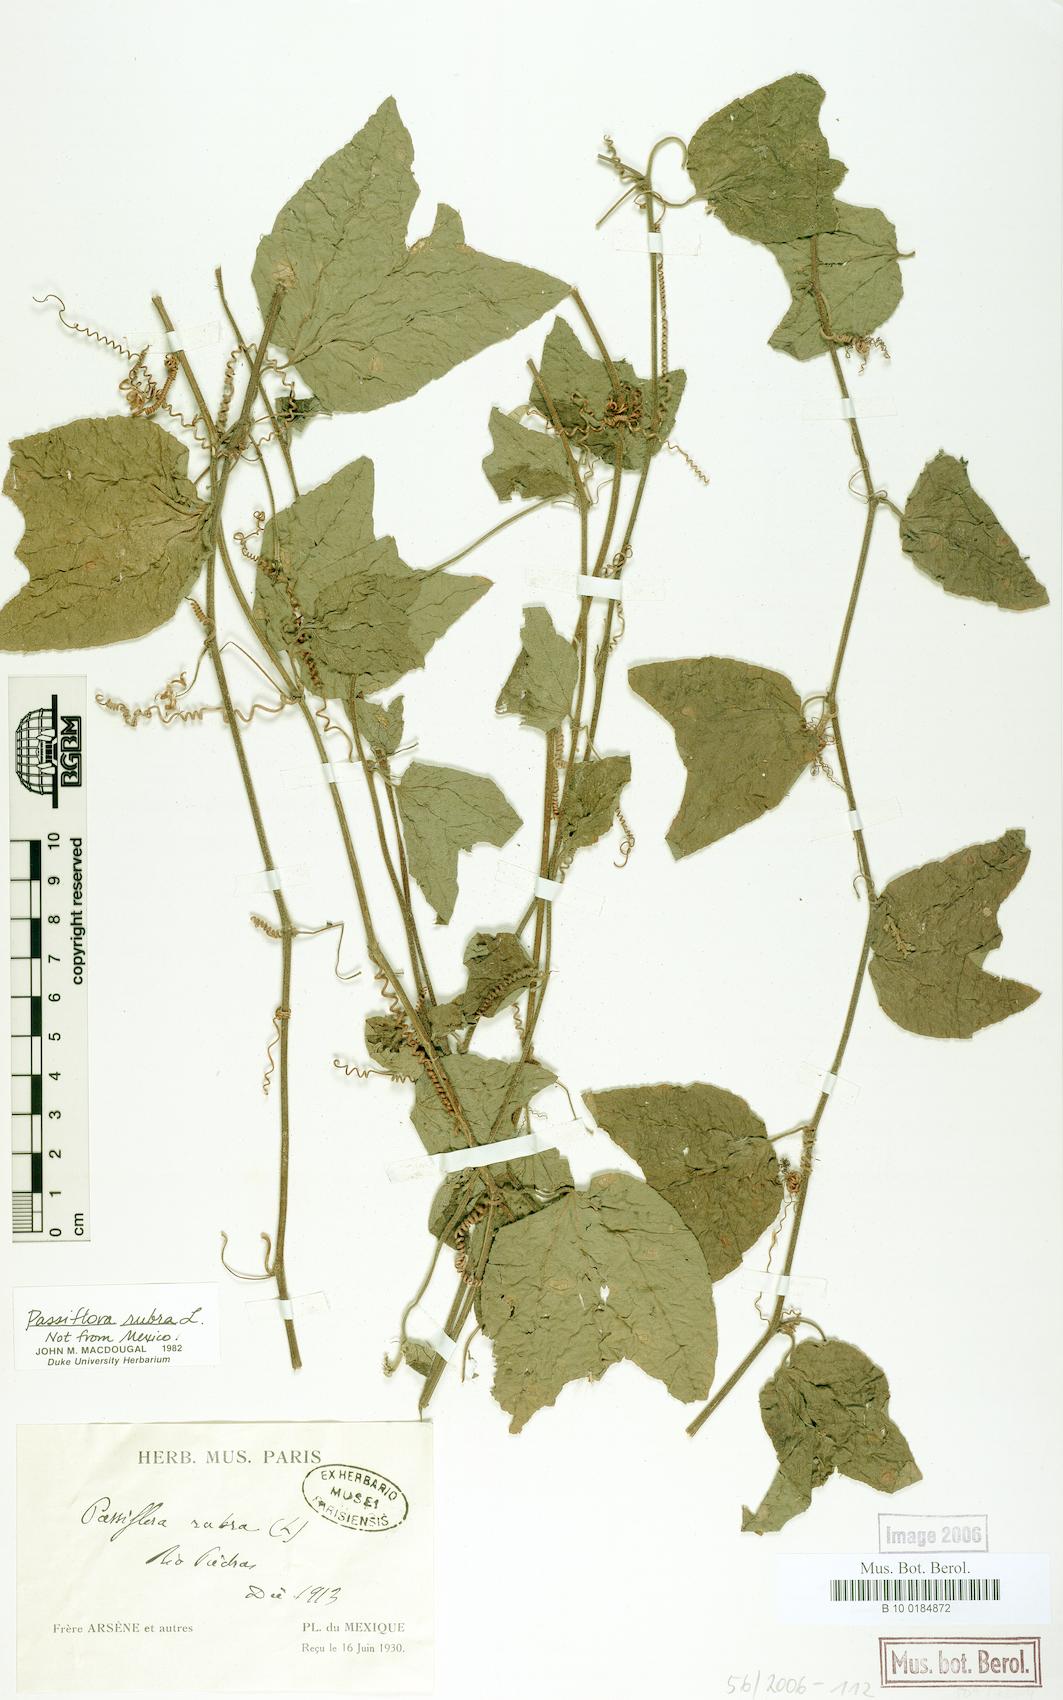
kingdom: Plantae
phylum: Tracheophyta
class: Magnoliopsida
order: Malpighiales
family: Passifloraceae
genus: Passiflora
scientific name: Passiflora rubra
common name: Snakeberry vine
